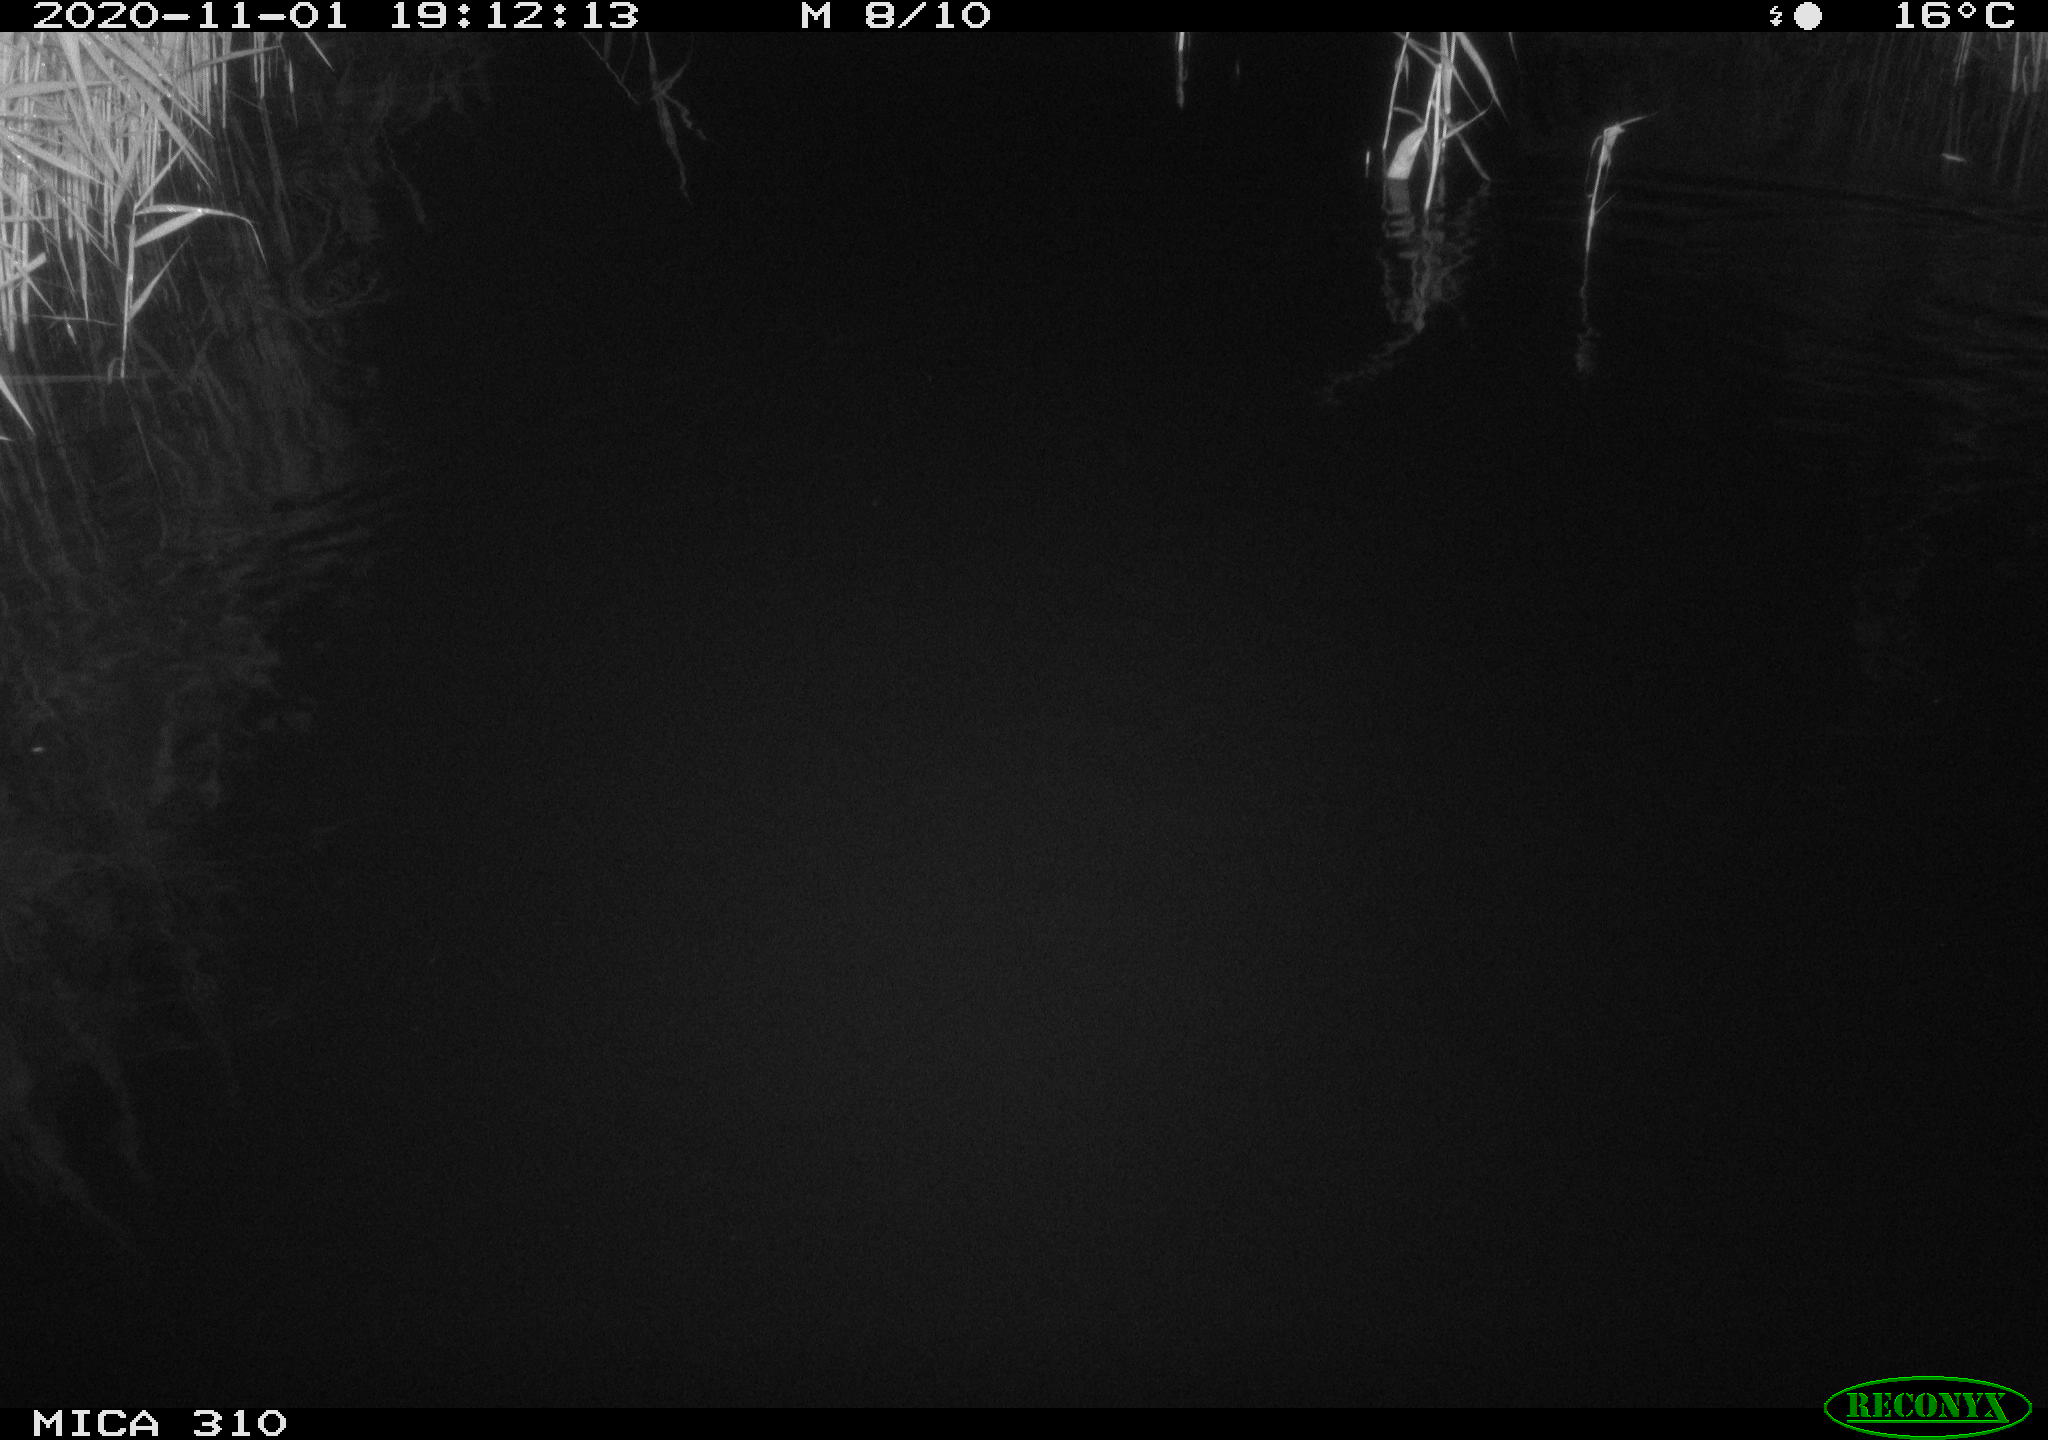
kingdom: Animalia
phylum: Chordata
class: Mammalia
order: Rodentia
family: Muridae
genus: Rattus
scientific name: Rattus norvegicus
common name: Brown rat
